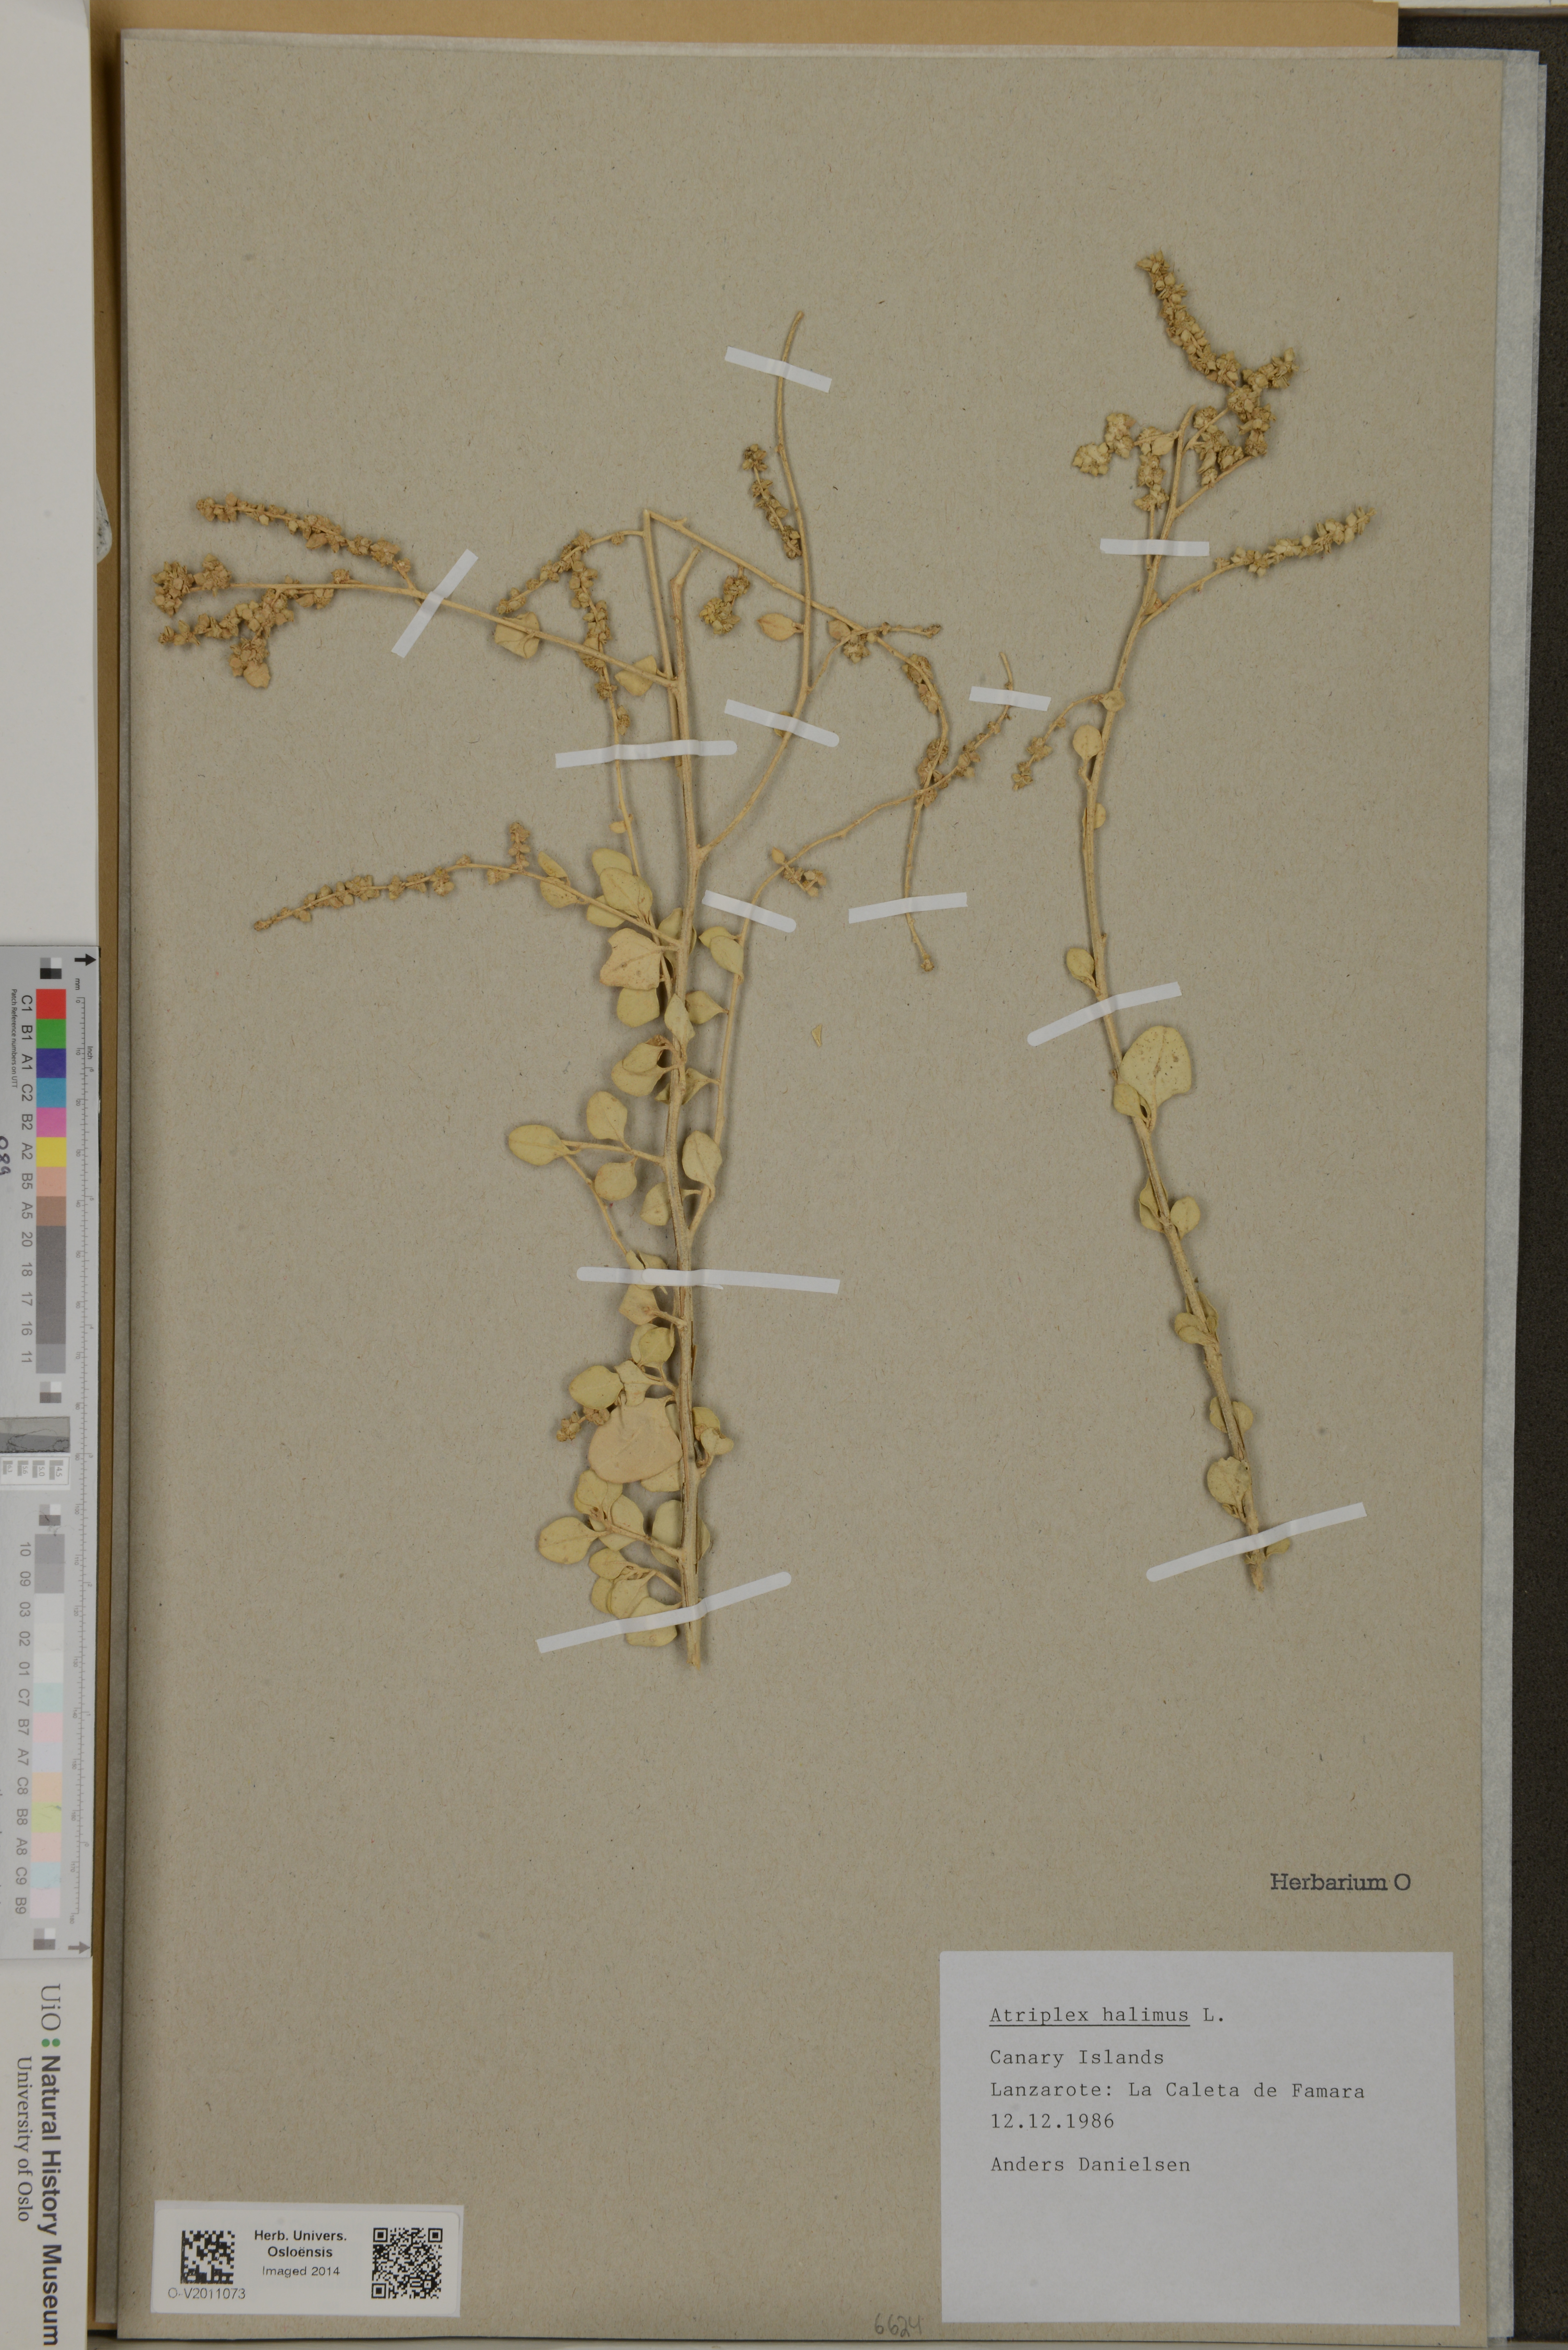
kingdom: Plantae
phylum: Tracheophyta
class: Magnoliopsida
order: Caryophyllales
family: Amaranthaceae
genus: Atriplex
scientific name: Atriplex halimus
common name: Shrubby orache
